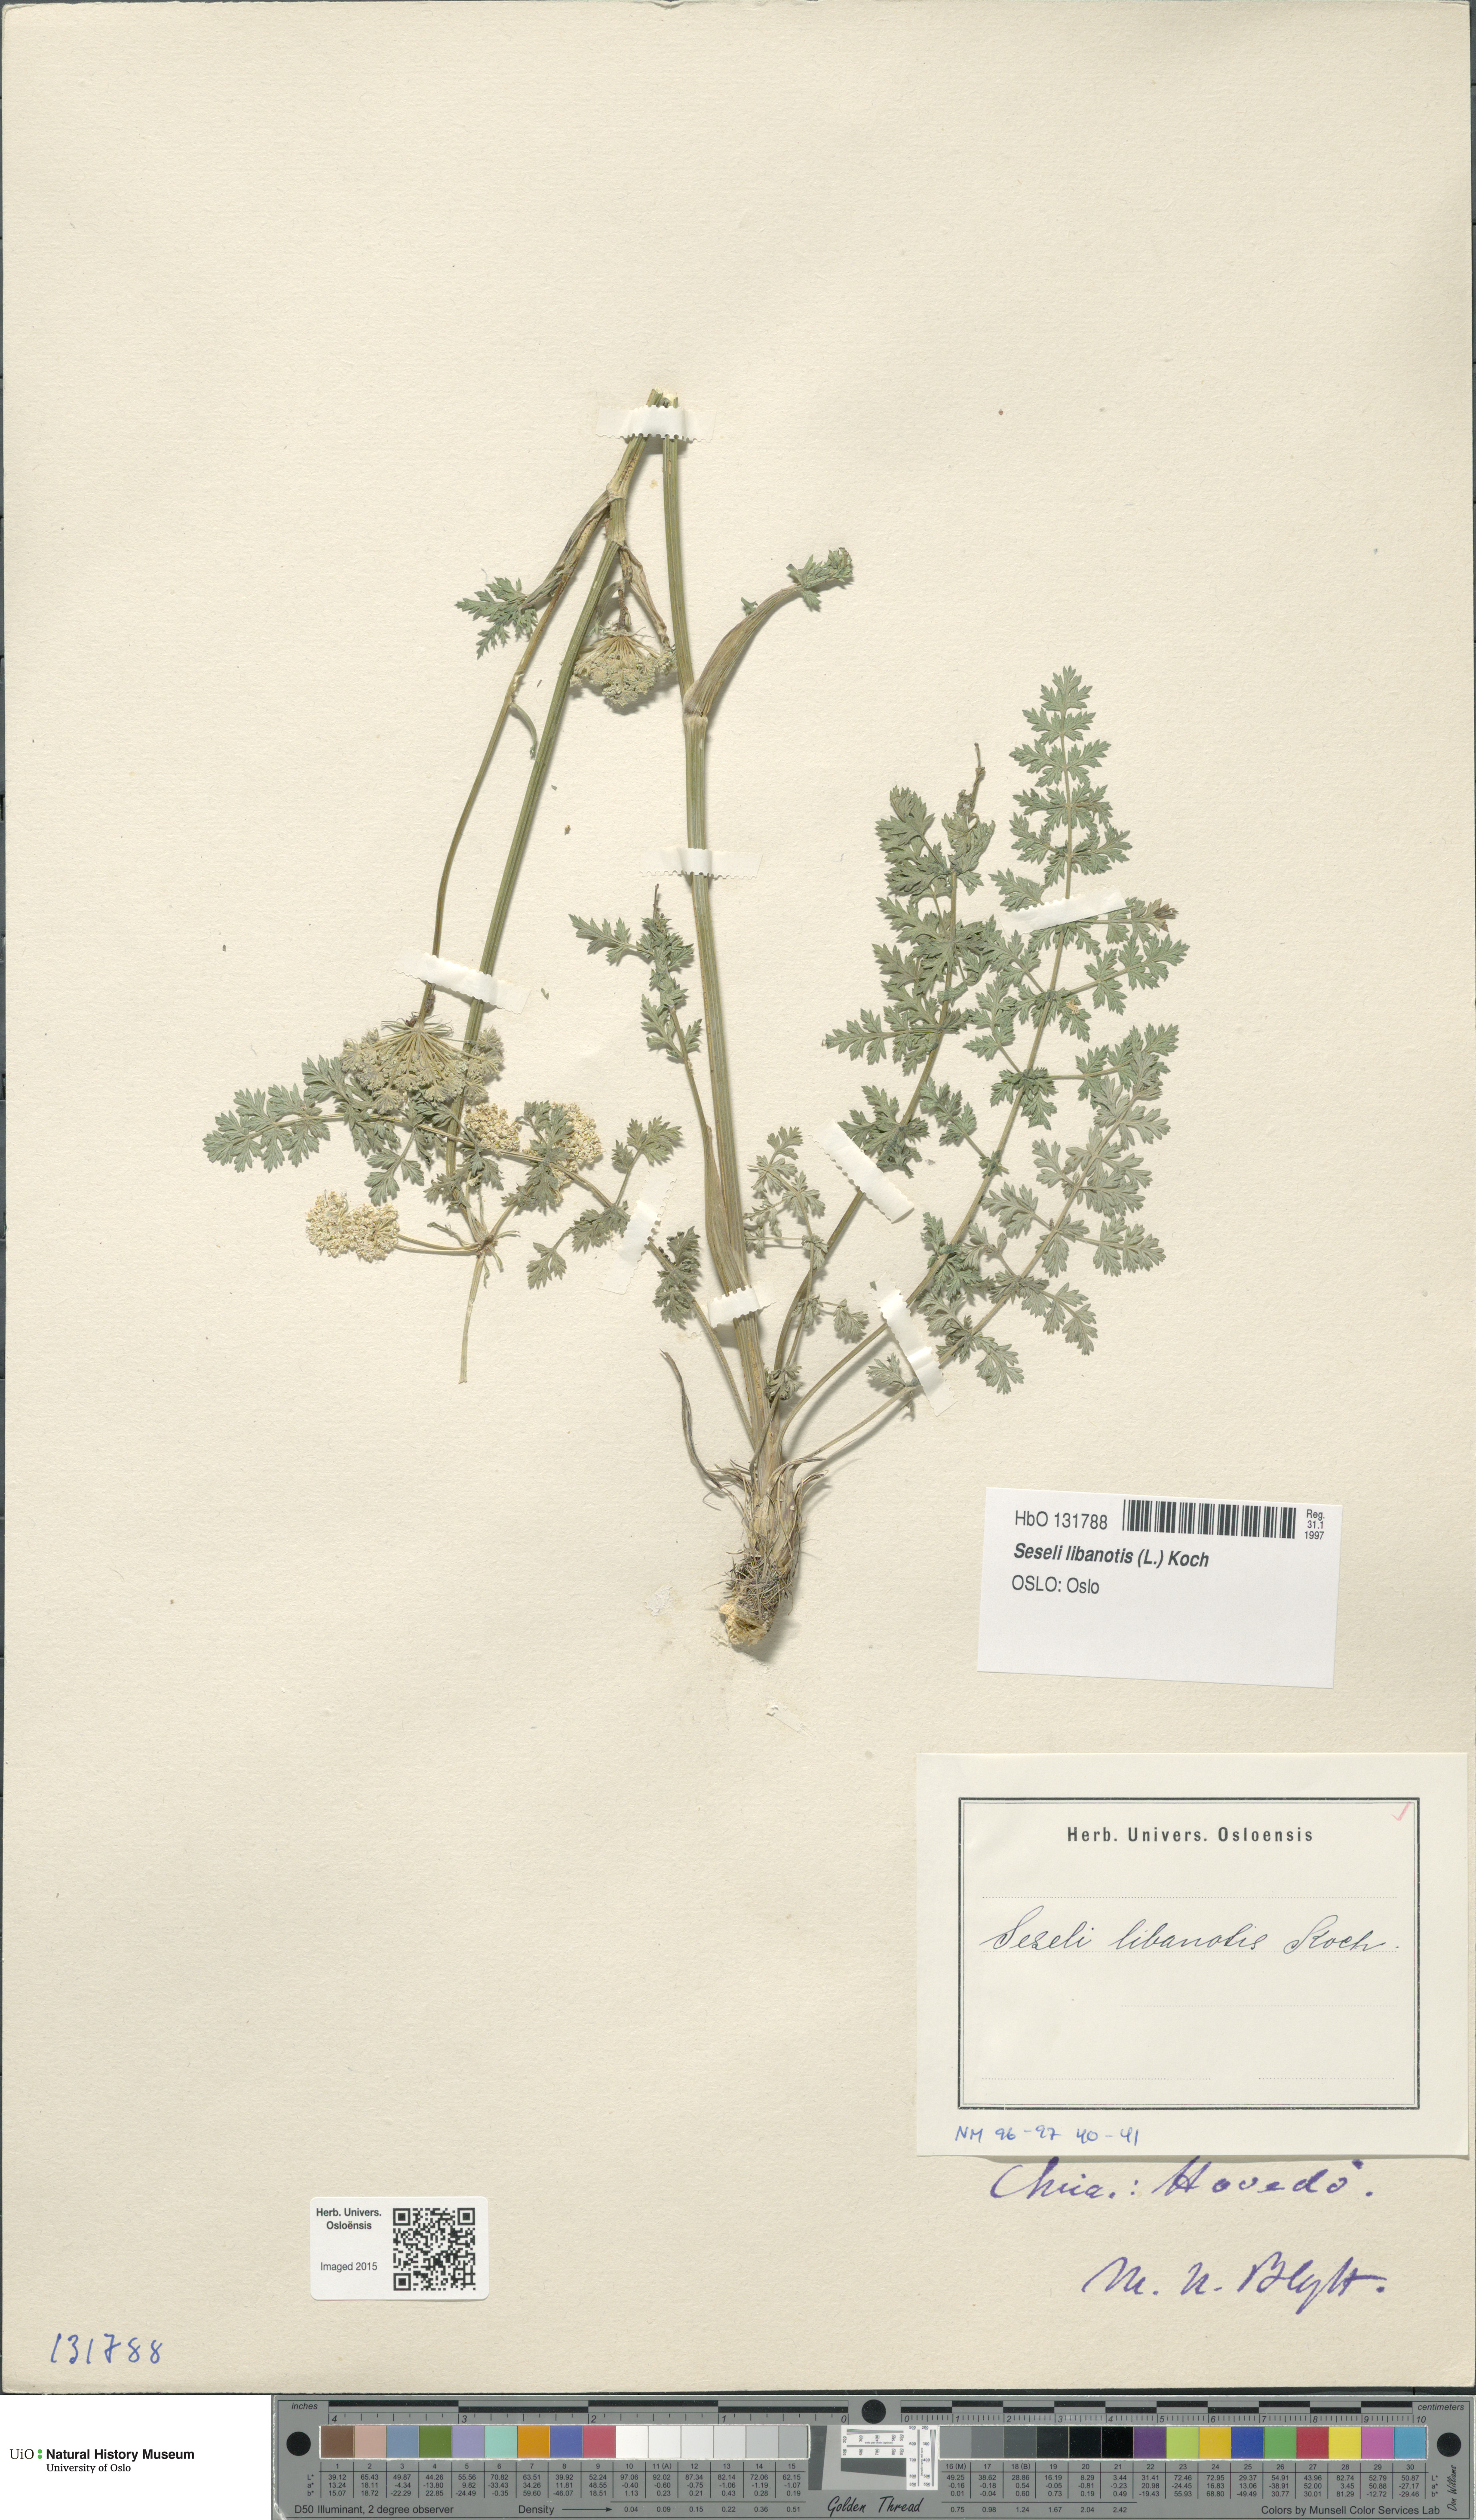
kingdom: Plantae
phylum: Tracheophyta
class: Magnoliopsida
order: Apiales
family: Apiaceae
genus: Seseli
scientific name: Seseli libanotis
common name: Mooncarrot
